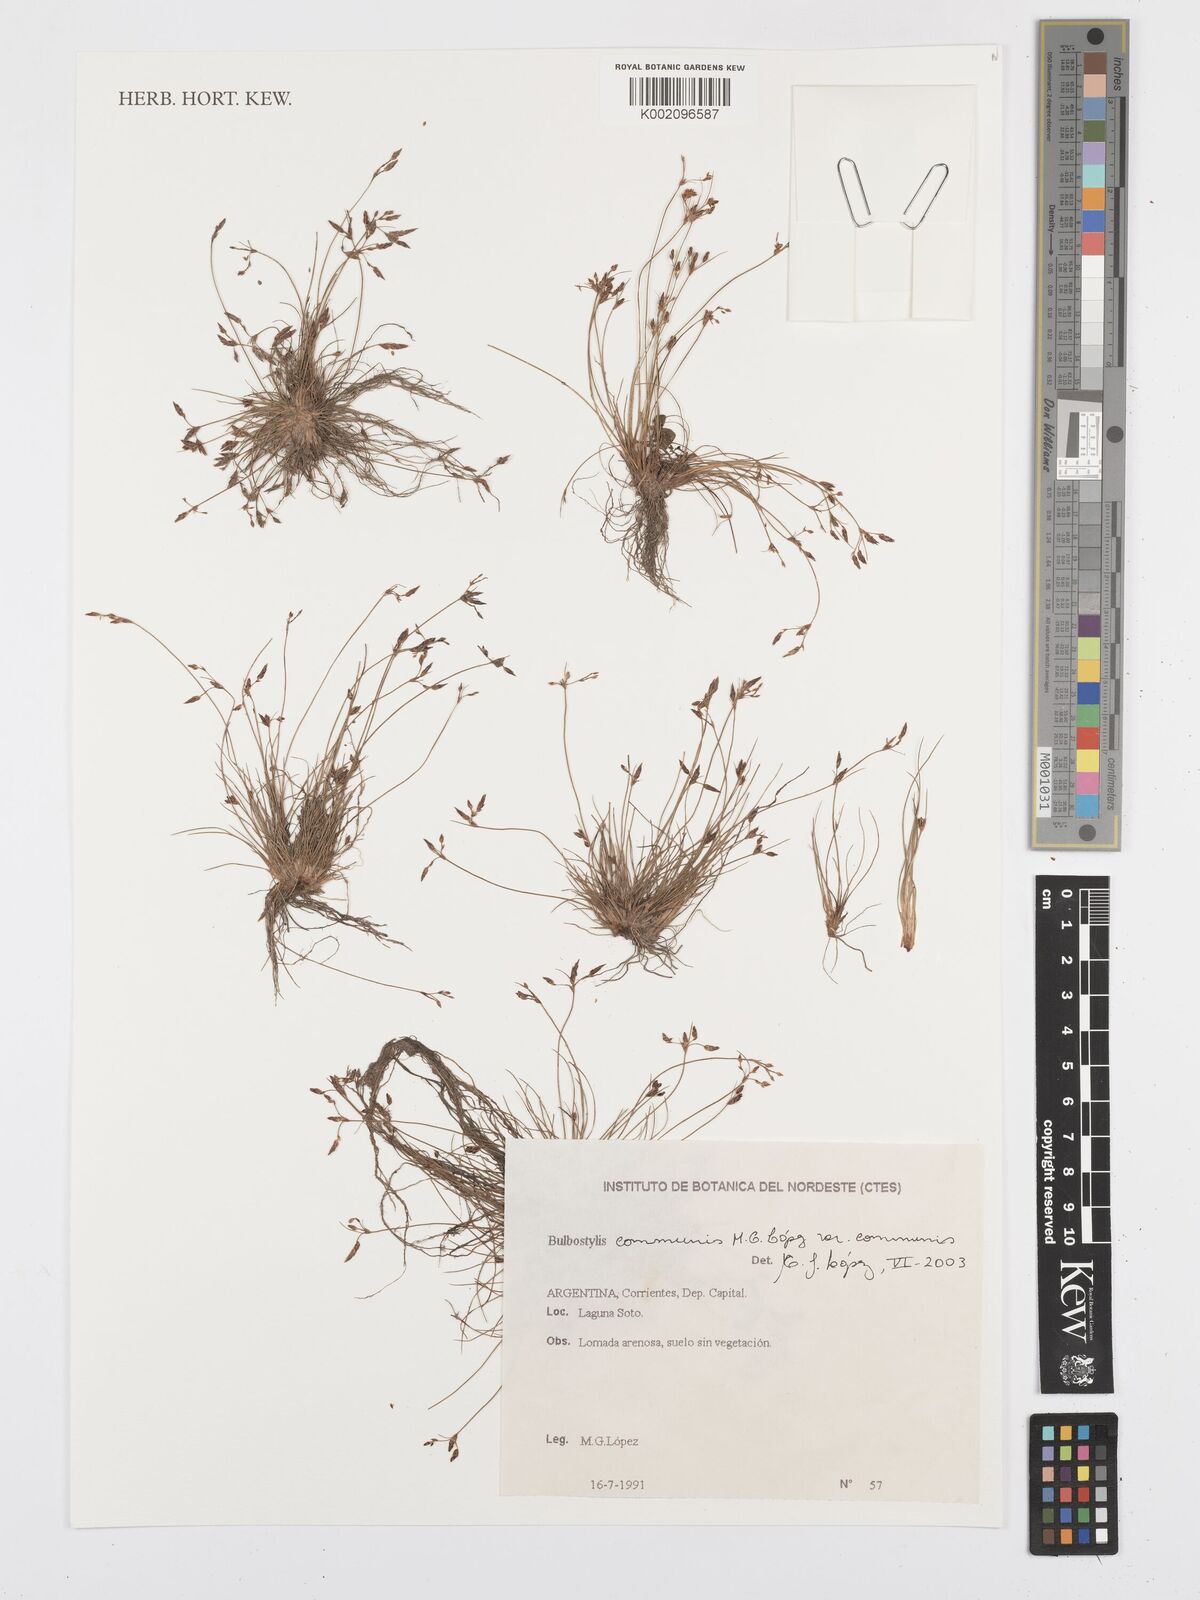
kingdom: Plantae
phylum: Tracheophyta
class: Liliopsida
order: Poales
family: Cyperaceae
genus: Bulbostylis
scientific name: Bulbostylis communis
